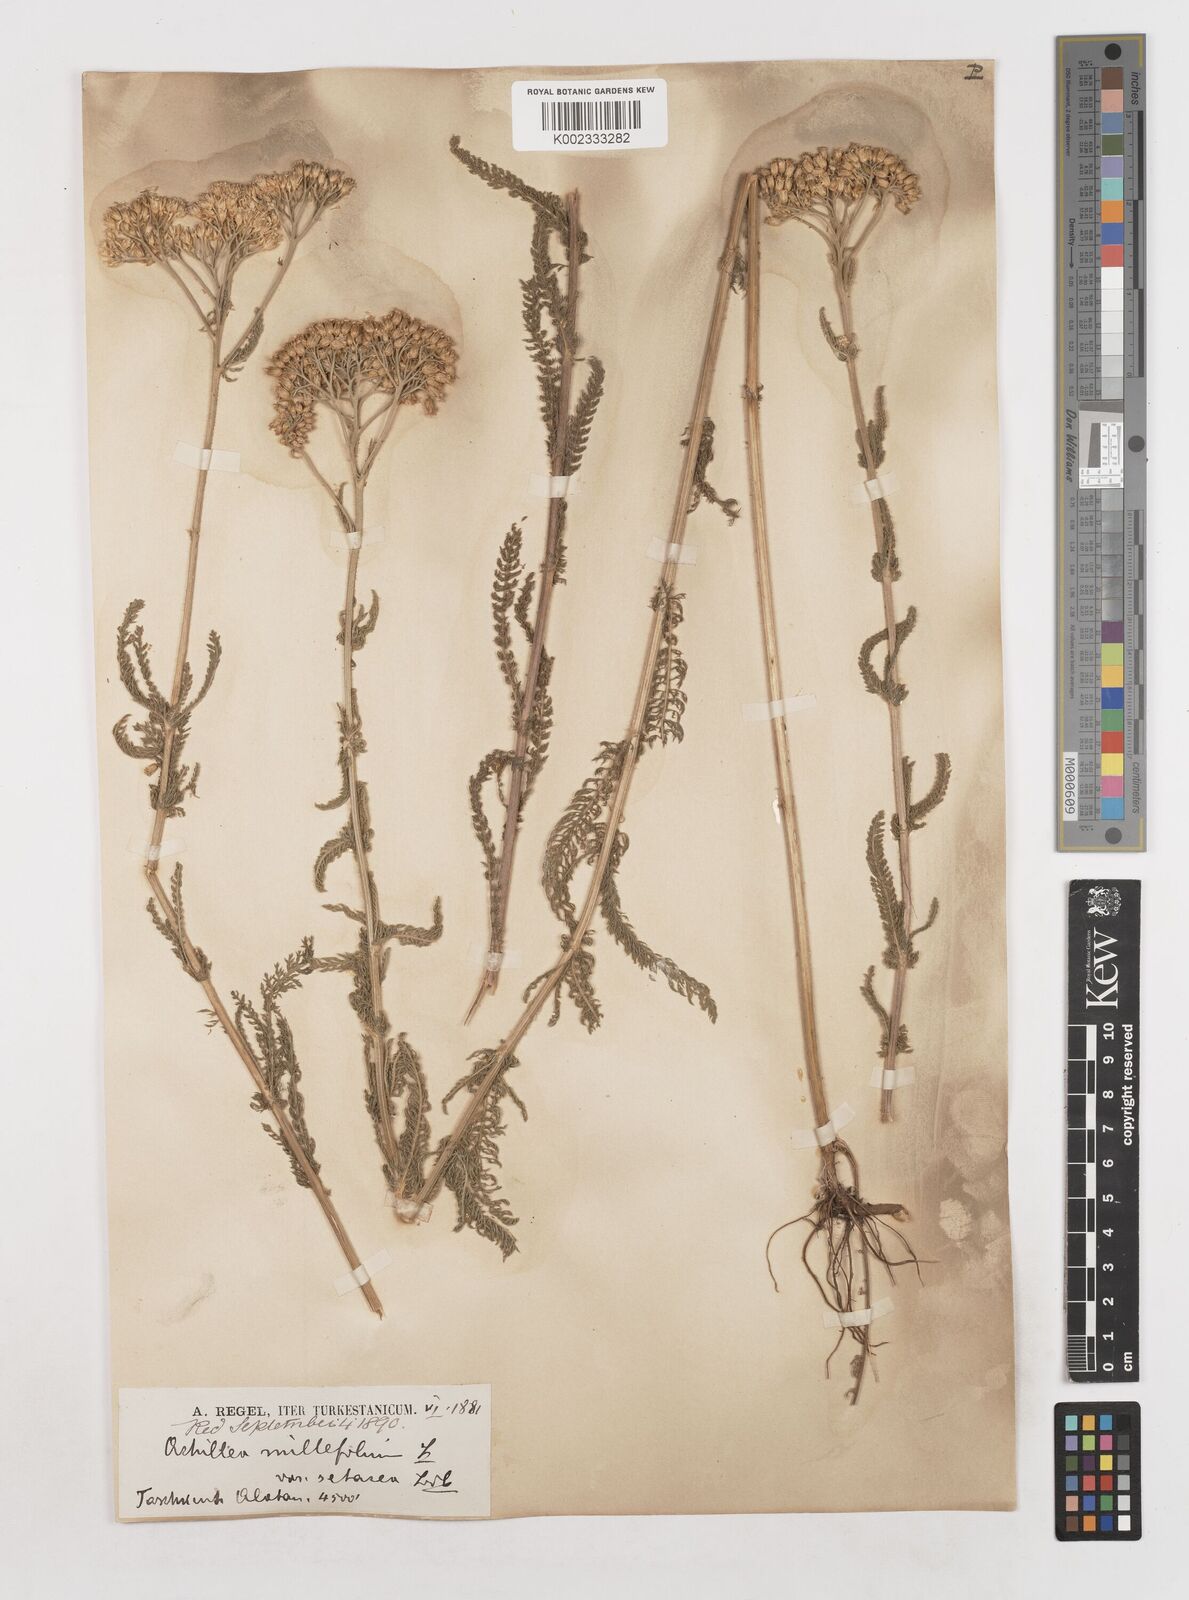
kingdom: Plantae
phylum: Tracheophyta
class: Magnoliopsida
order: Asterales
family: Asteraceae
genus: Achillea
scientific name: Achillea setacea
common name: Bristly yarrow
